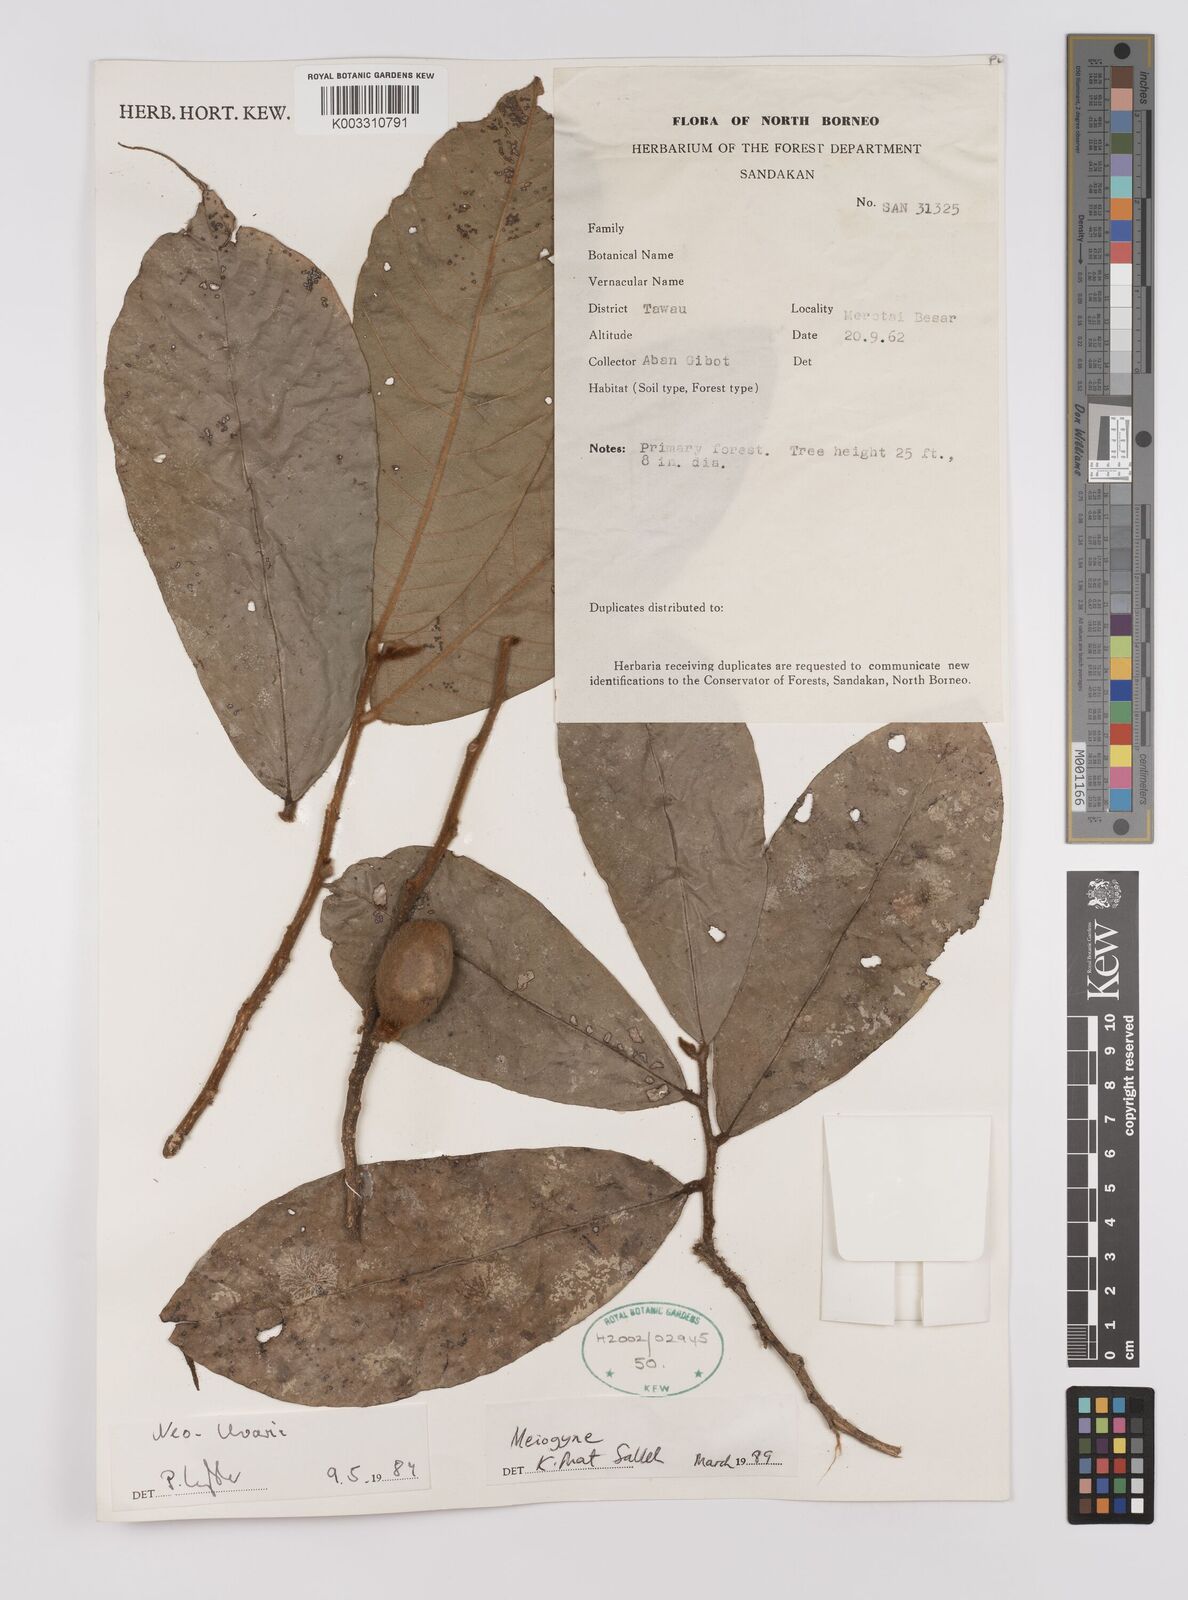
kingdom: Plantae
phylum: Tracheophyta
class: Magnoliopsida
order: Magnoliales
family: Annonaceae
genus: Neo-uvaria
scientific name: Neo-uvaria
